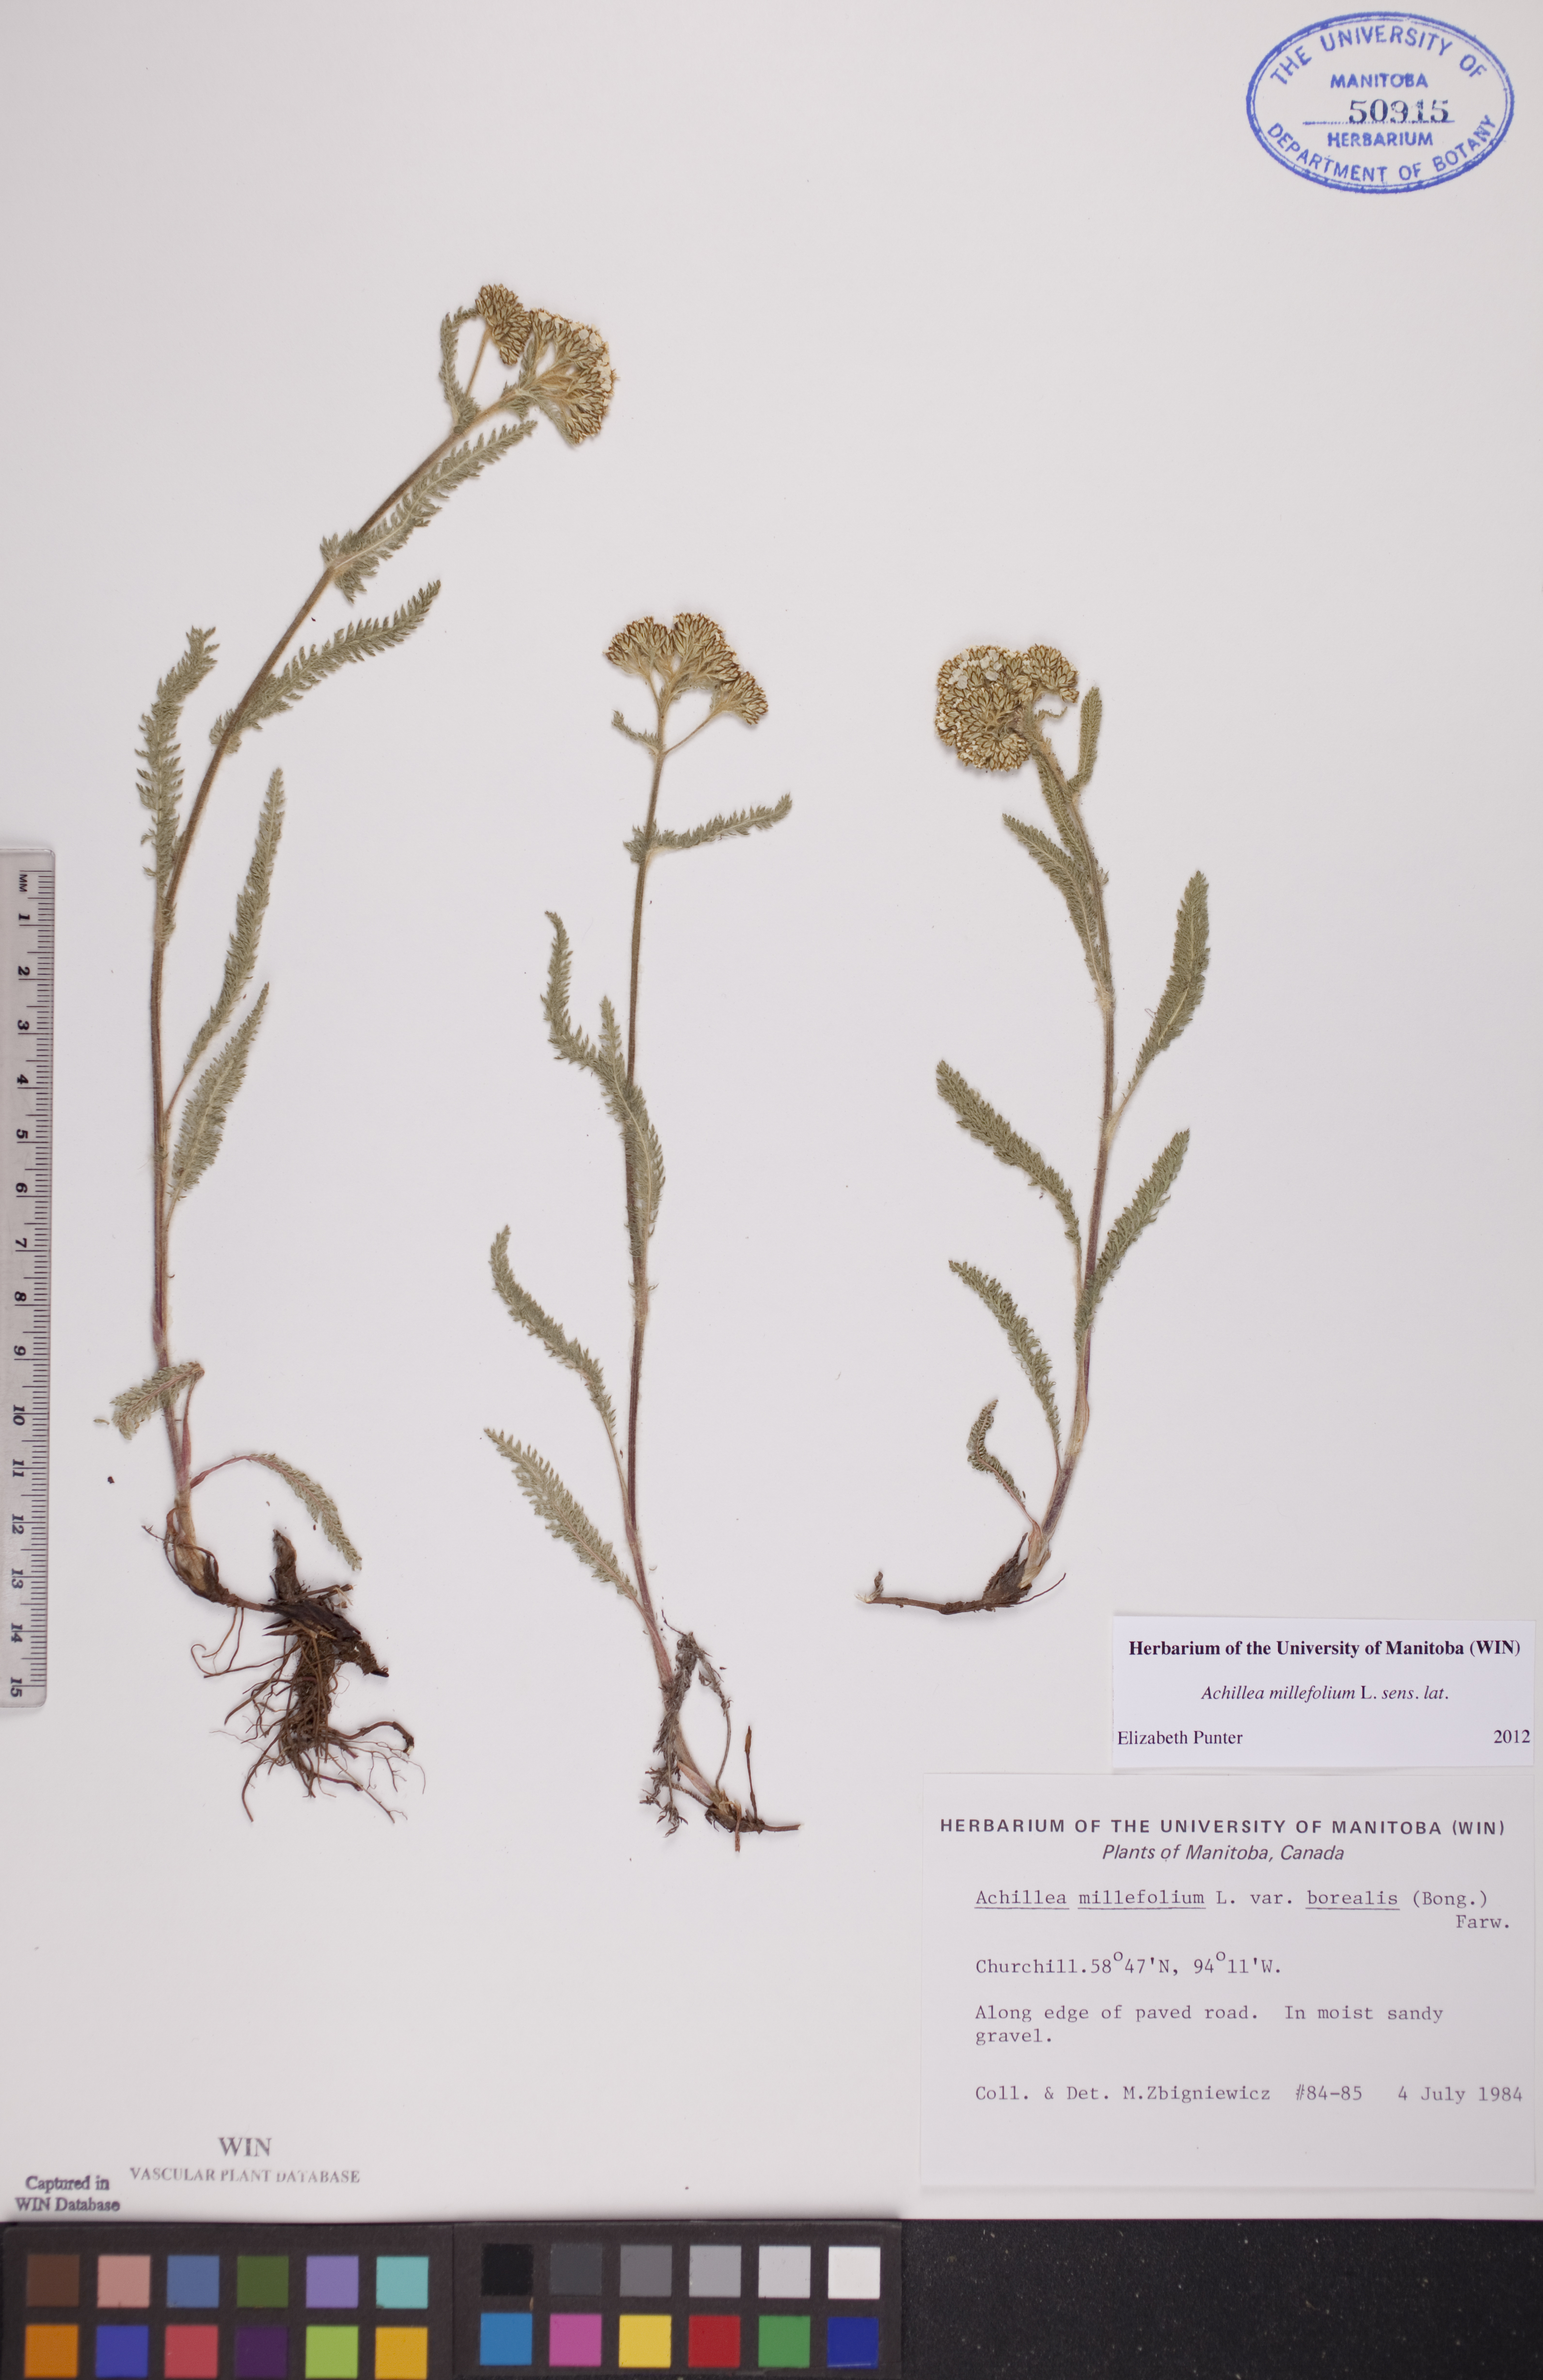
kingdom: Plantae
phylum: Tracheophyta
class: Magnoliopsida
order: Asterales
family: Asteraceae
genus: Achillea
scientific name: Achillea millefolium
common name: Yarrow
